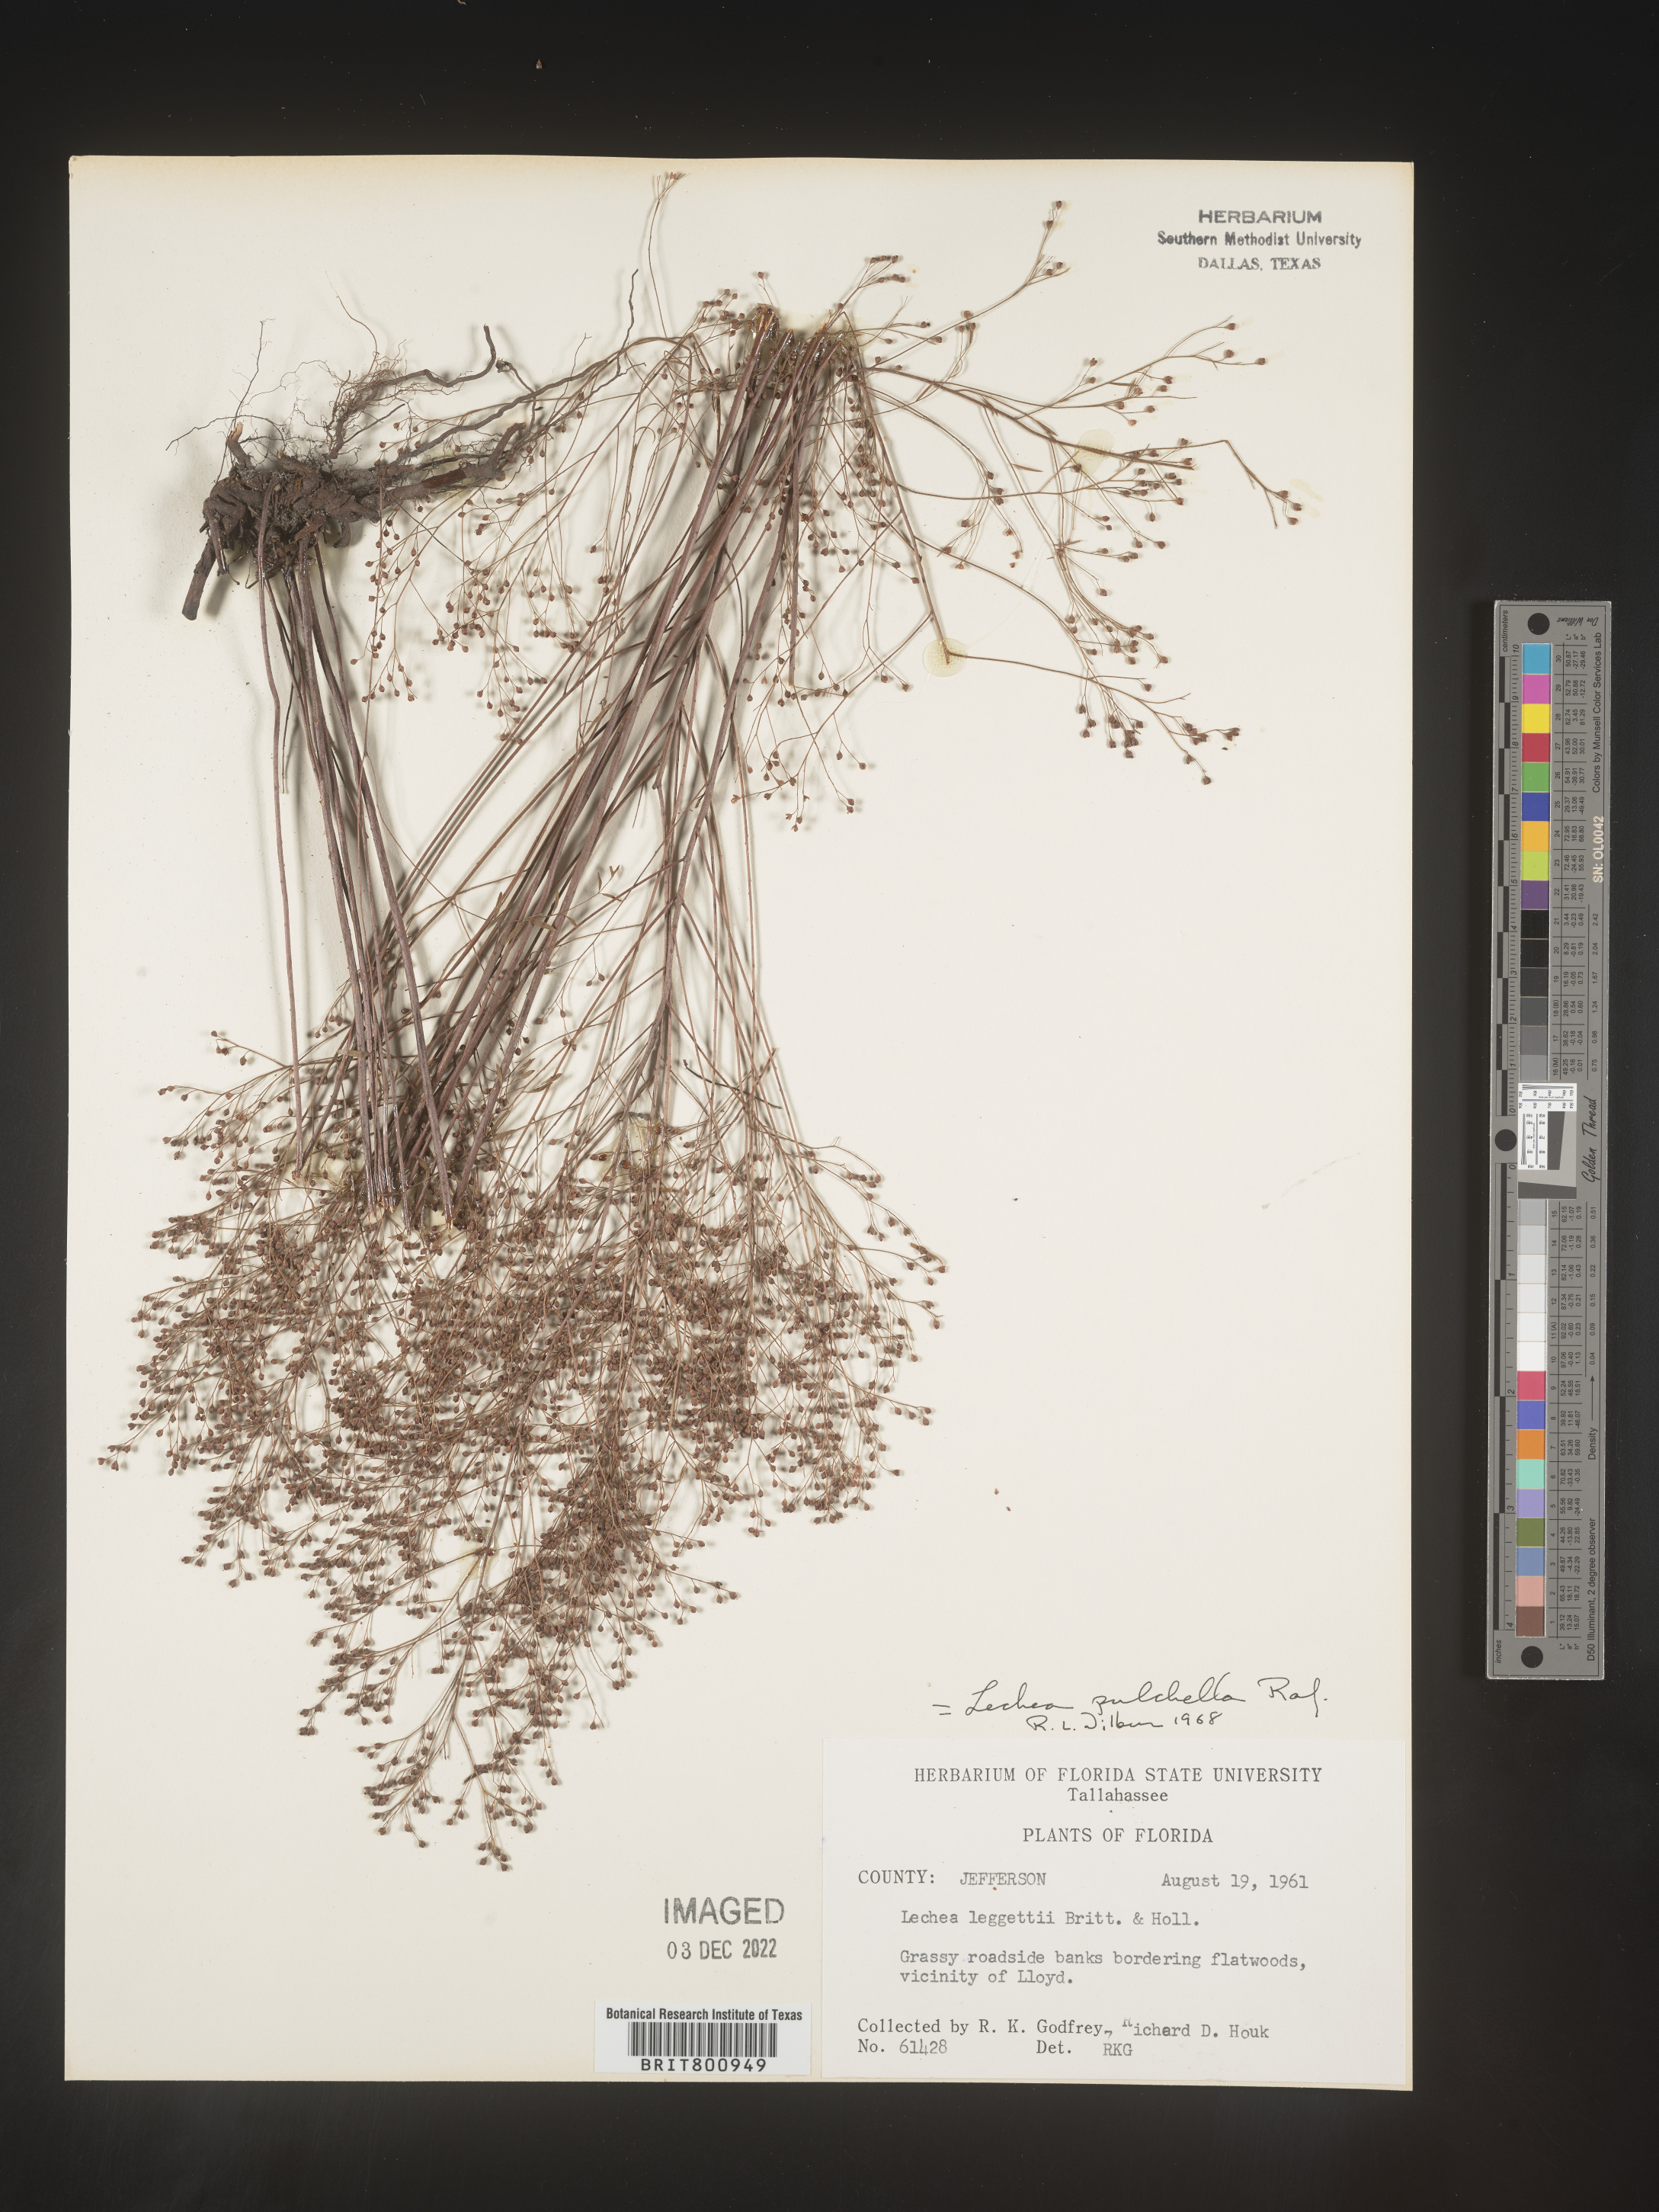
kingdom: Plantae
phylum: Tracheophyta
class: Magnoliopsida
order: Malvales
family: Cistaceae
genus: Lechea
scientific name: Lechea pulchella
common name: Leggett's pinweed
